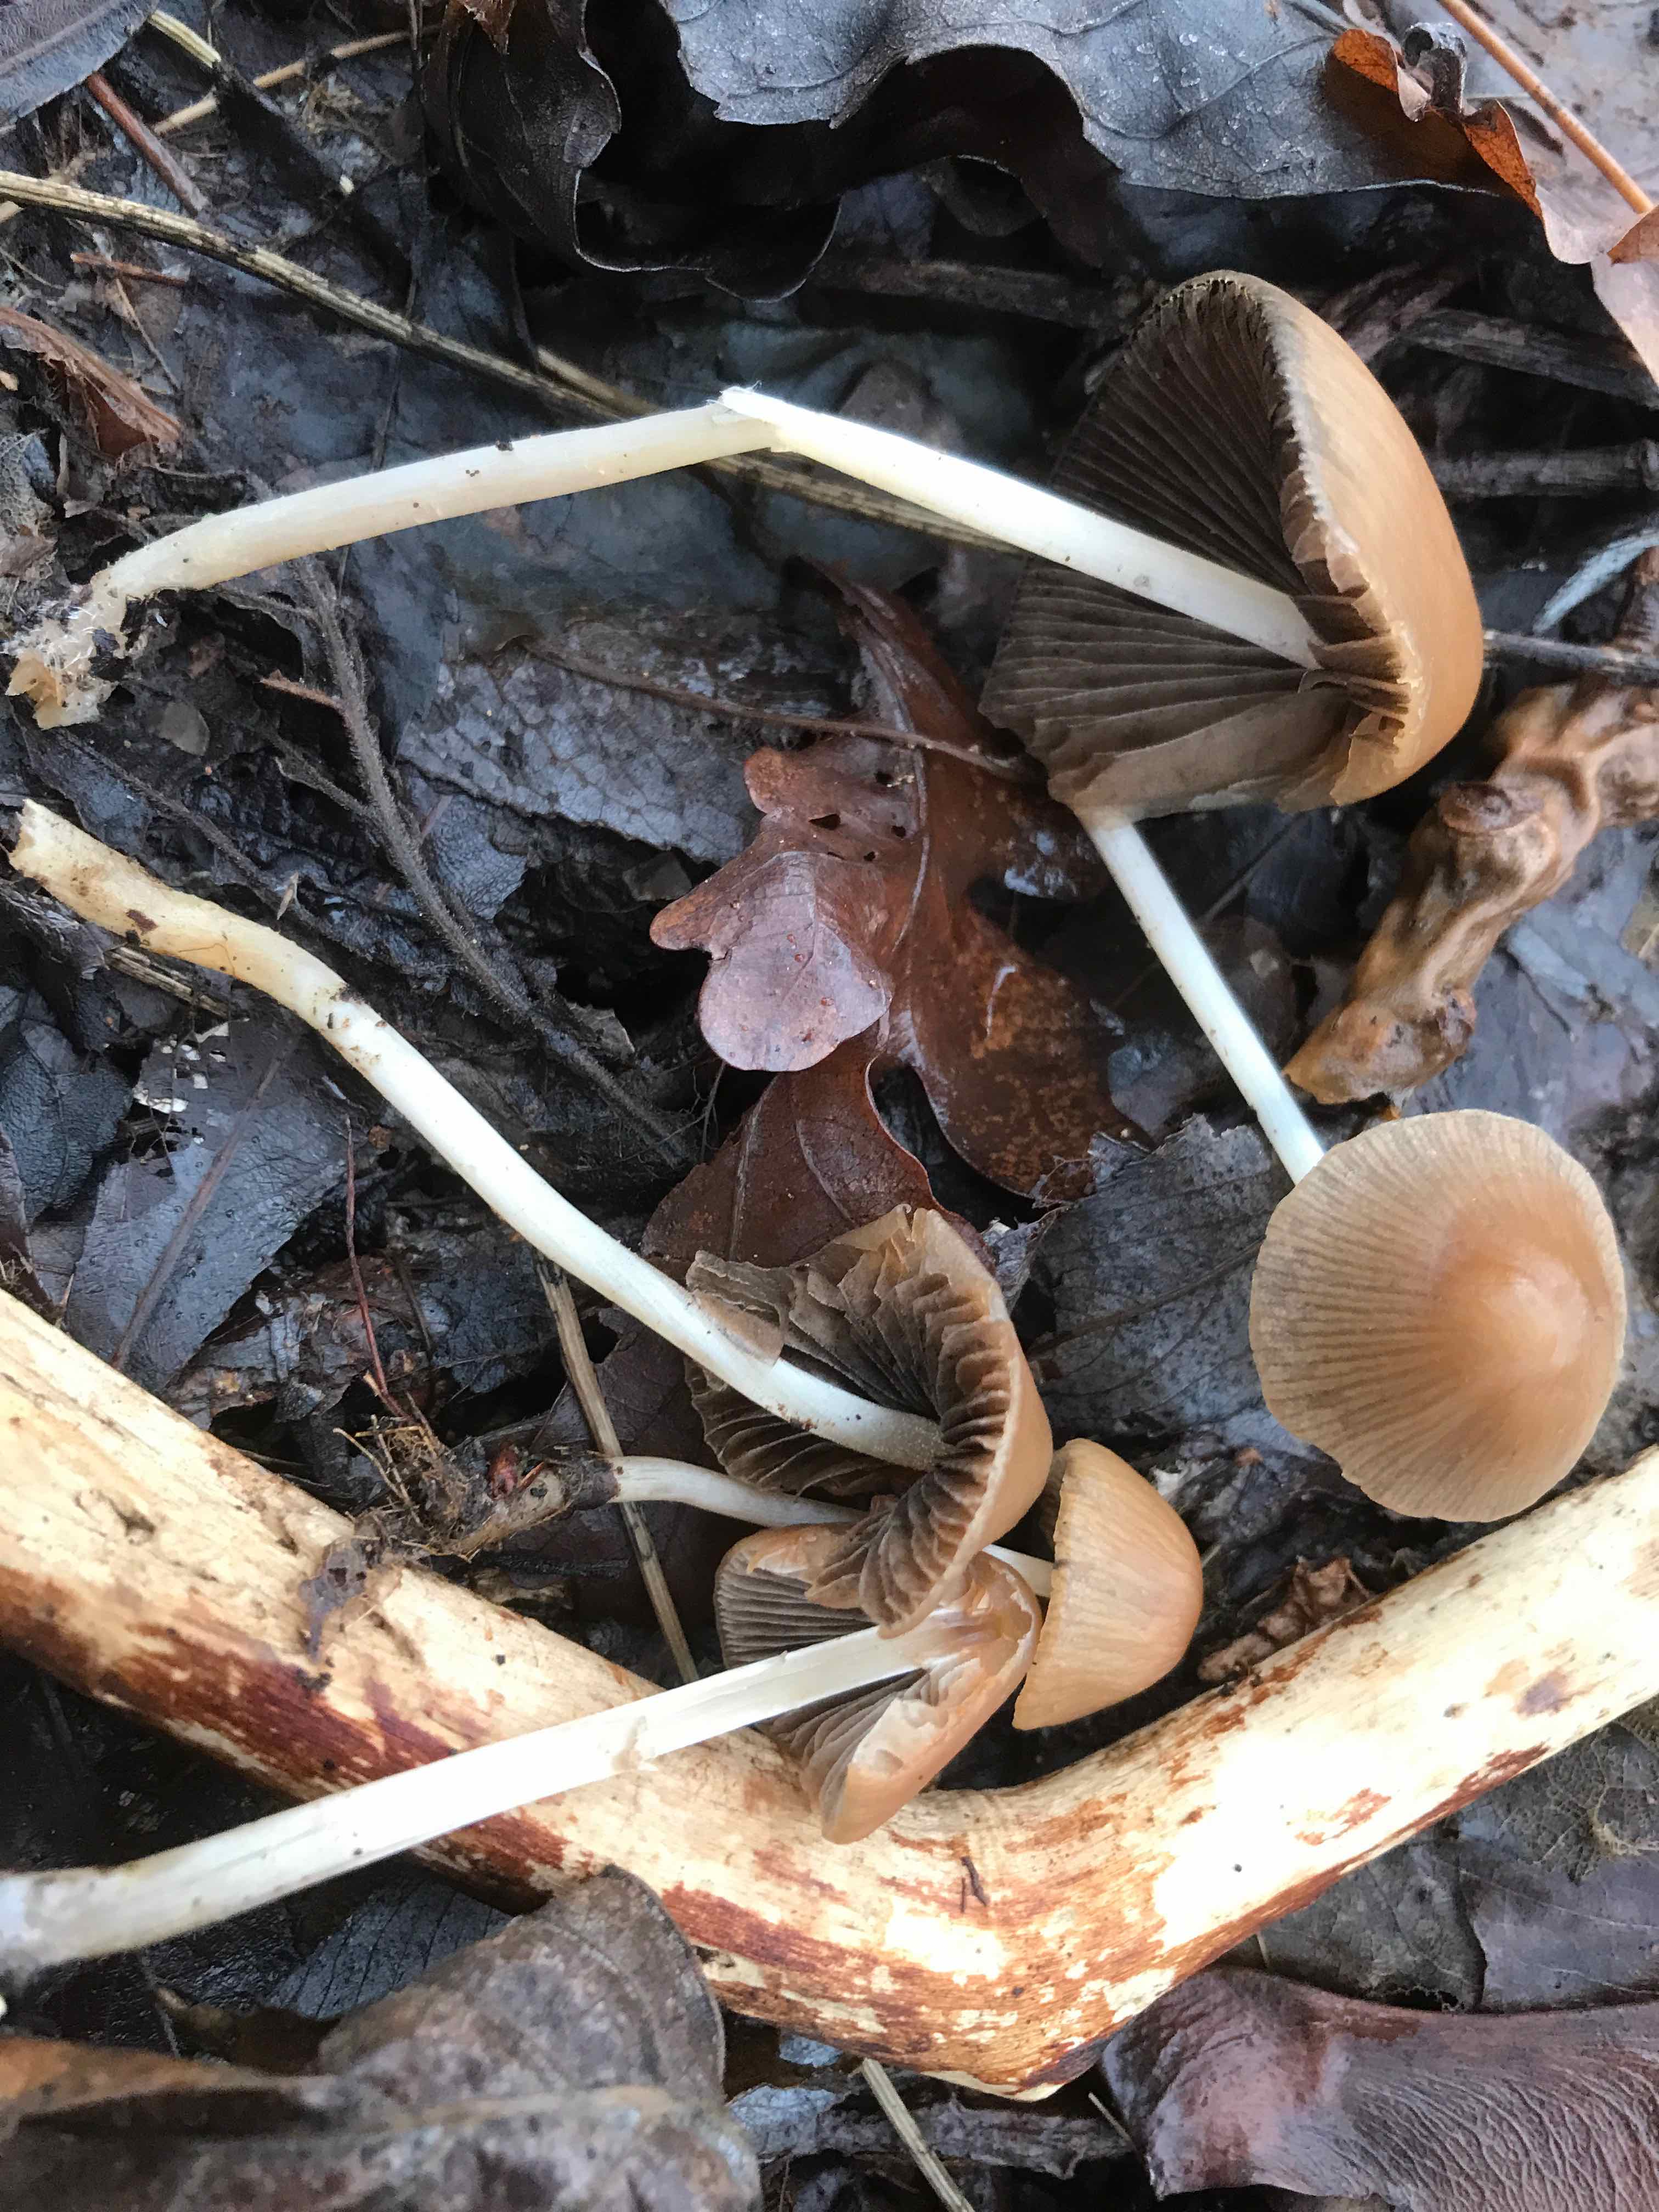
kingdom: Fungi
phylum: Basidiomycota
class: Agaricomycetes
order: Agaricales
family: Psathyrellaceae
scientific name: Psathyrellaceae
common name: mørkhatfamilien
